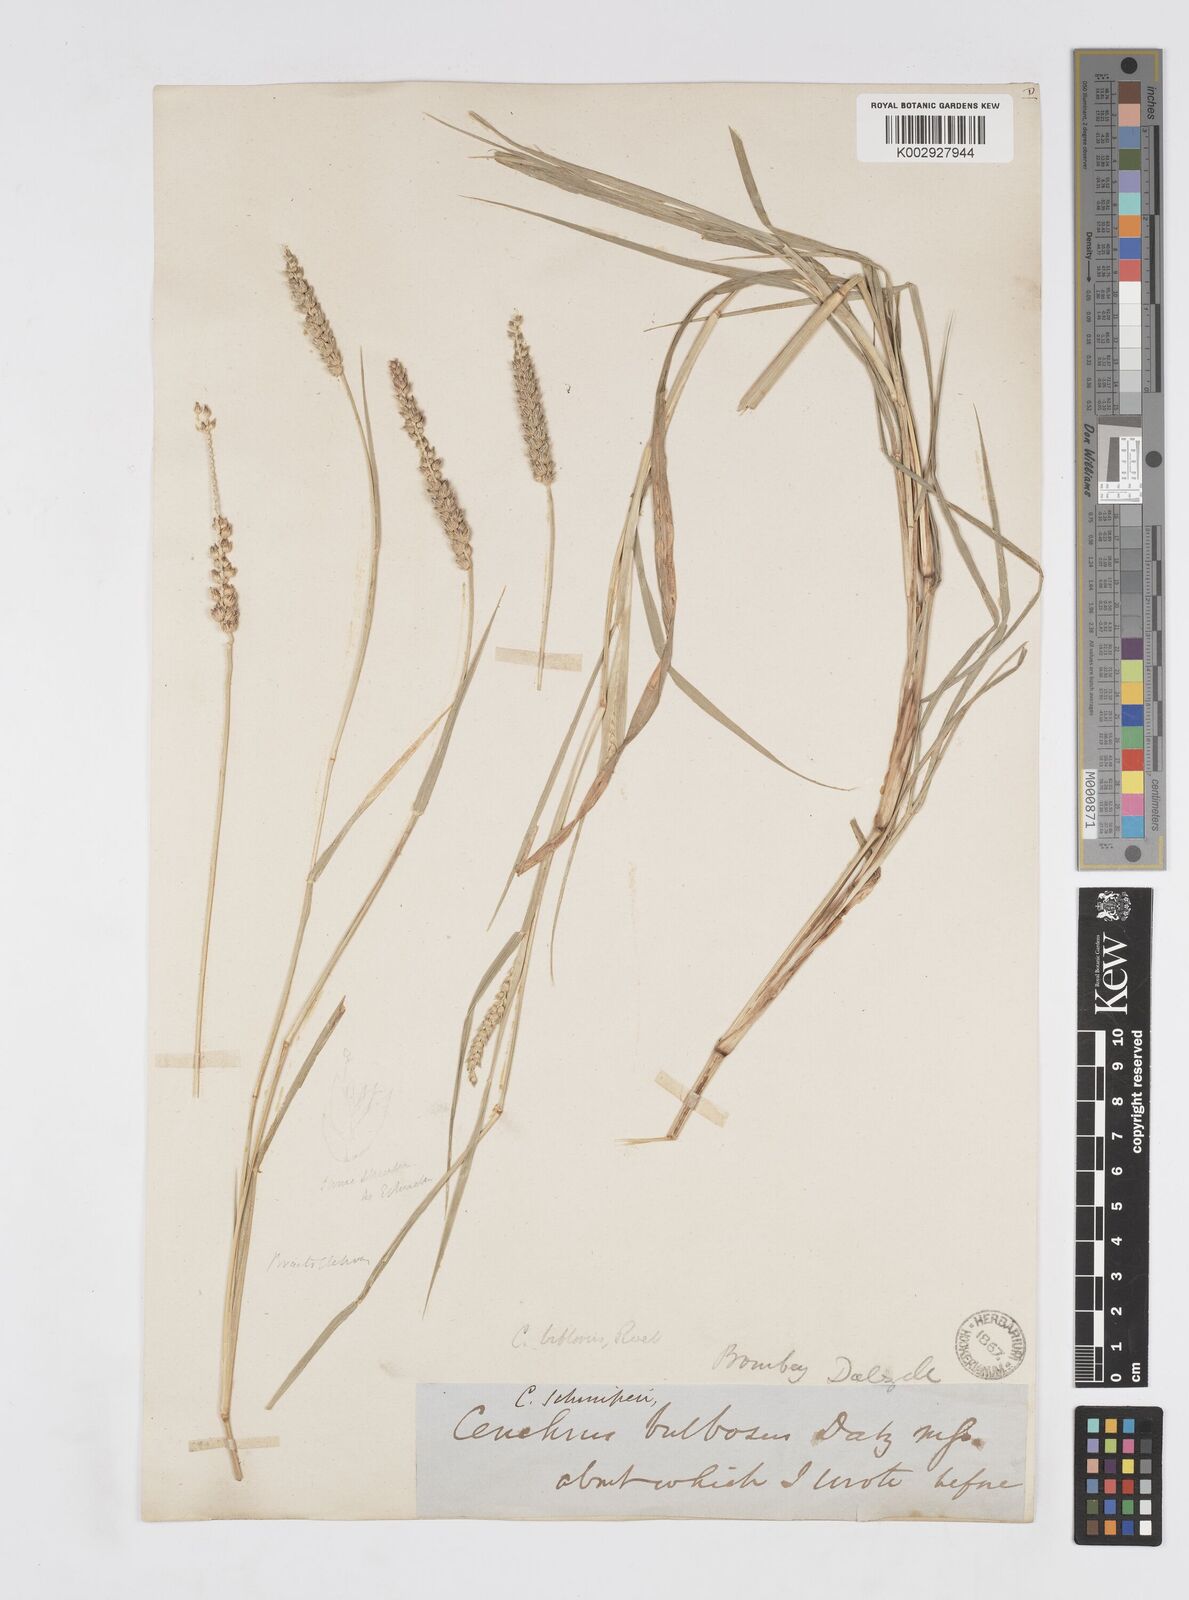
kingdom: Plantae
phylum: Tracheophyta
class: Liliopsida
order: Poales
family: Poaceae
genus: Cenchrus
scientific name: Cenchrus setigerus
